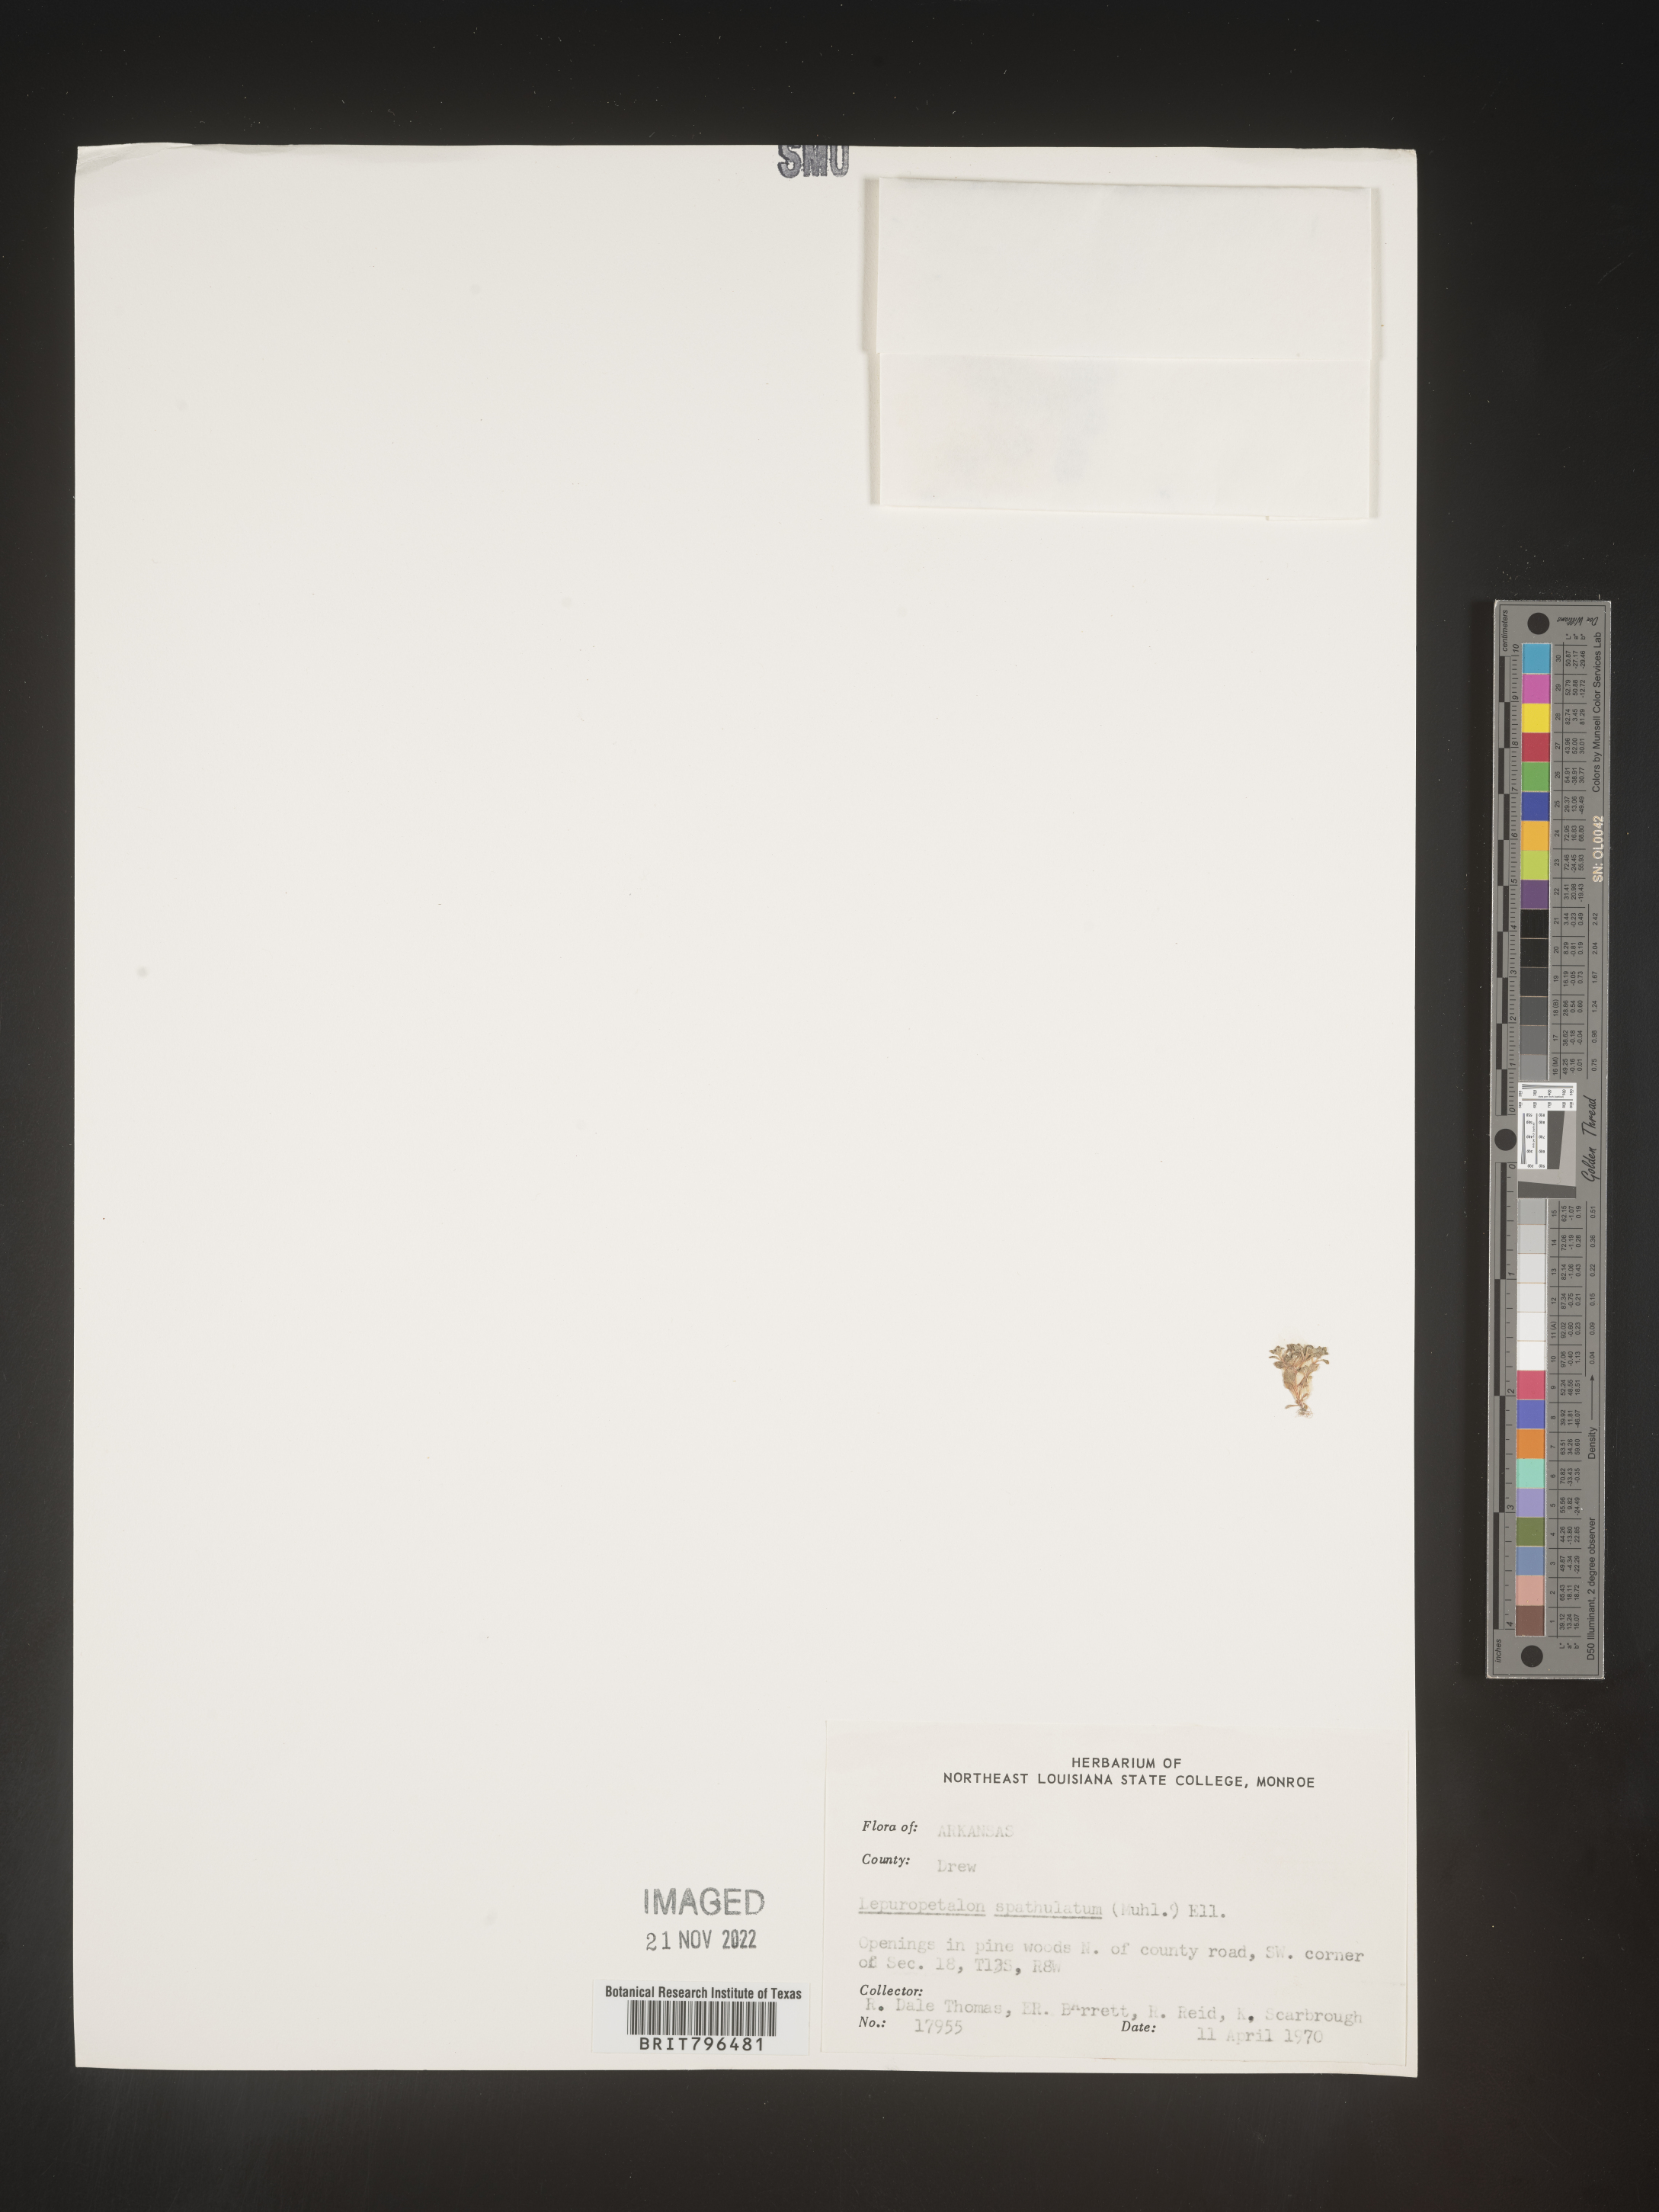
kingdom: Plantae
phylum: Tracheophyta
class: Magnoliopsida
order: Celastrales
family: Parnassiaceae
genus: Lepuropetalon
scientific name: Lepuropetalon
